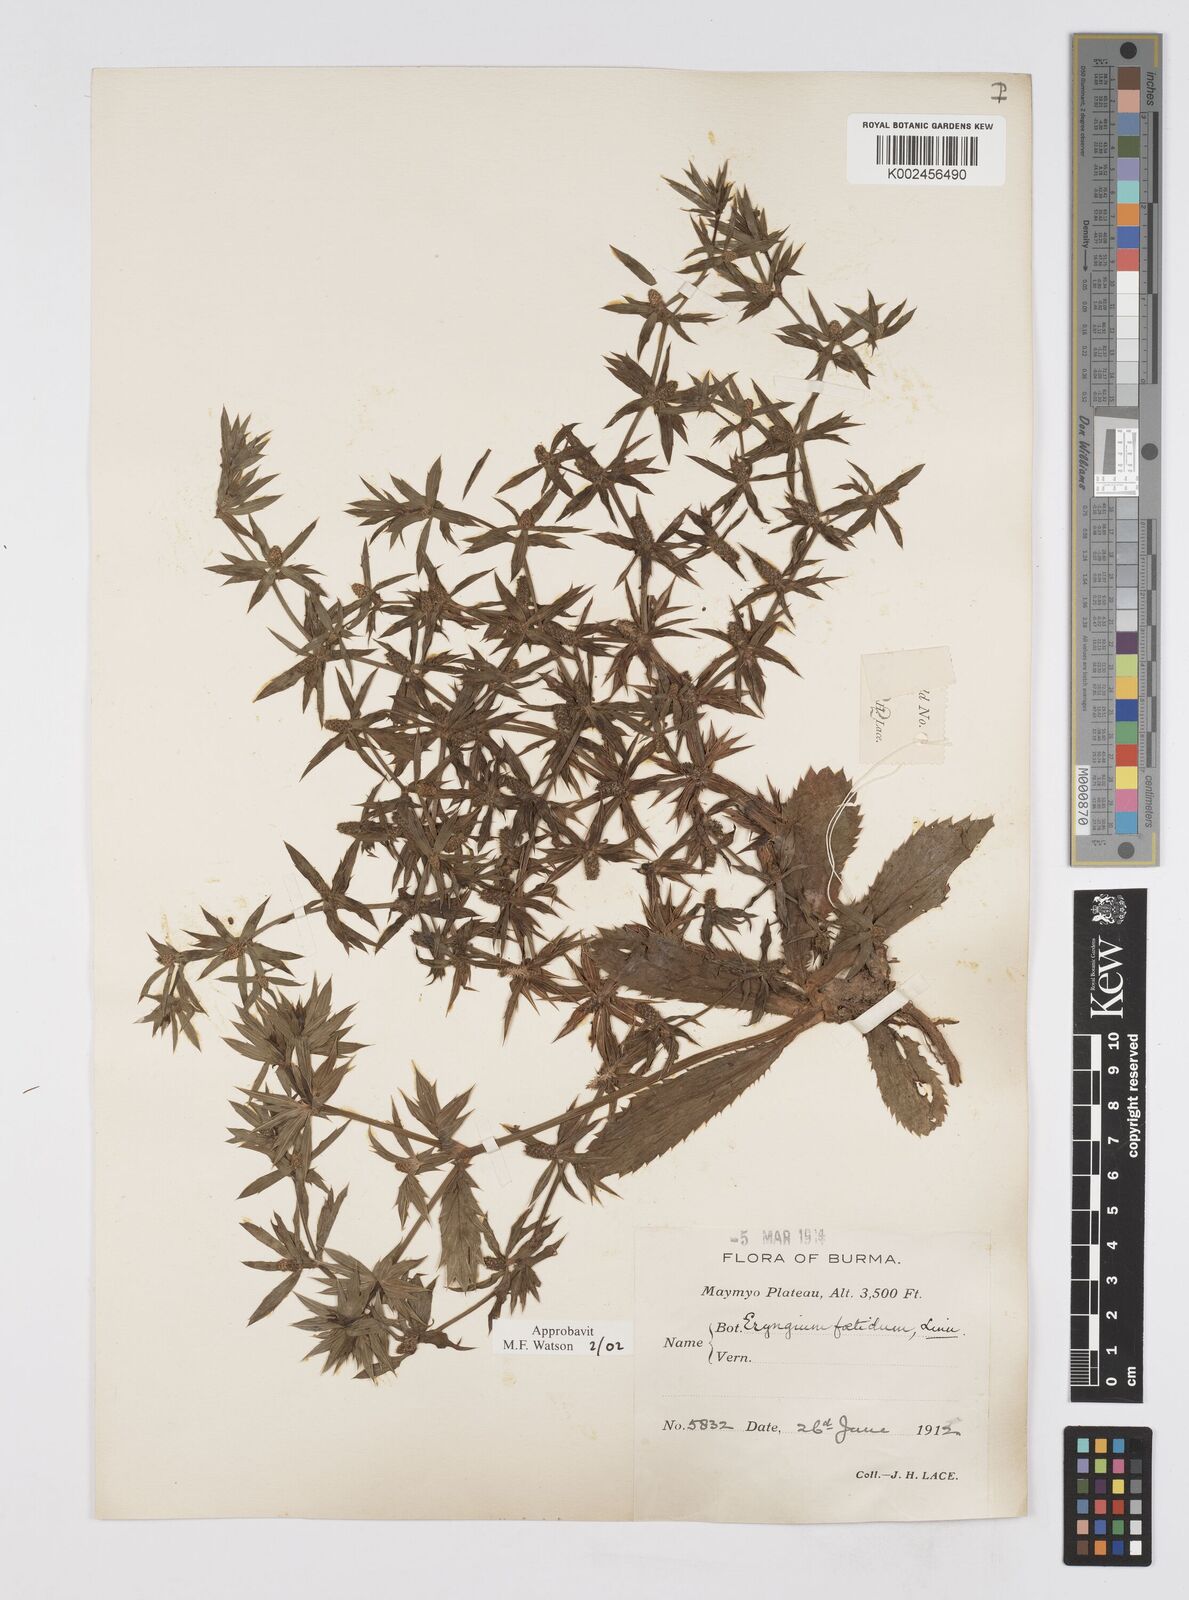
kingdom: Plantae
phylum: Tracheophyta
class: Magnoliopsida
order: Apiales
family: Apiaceae
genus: Eryngium
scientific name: Eryngium foetidum
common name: Fitweed
